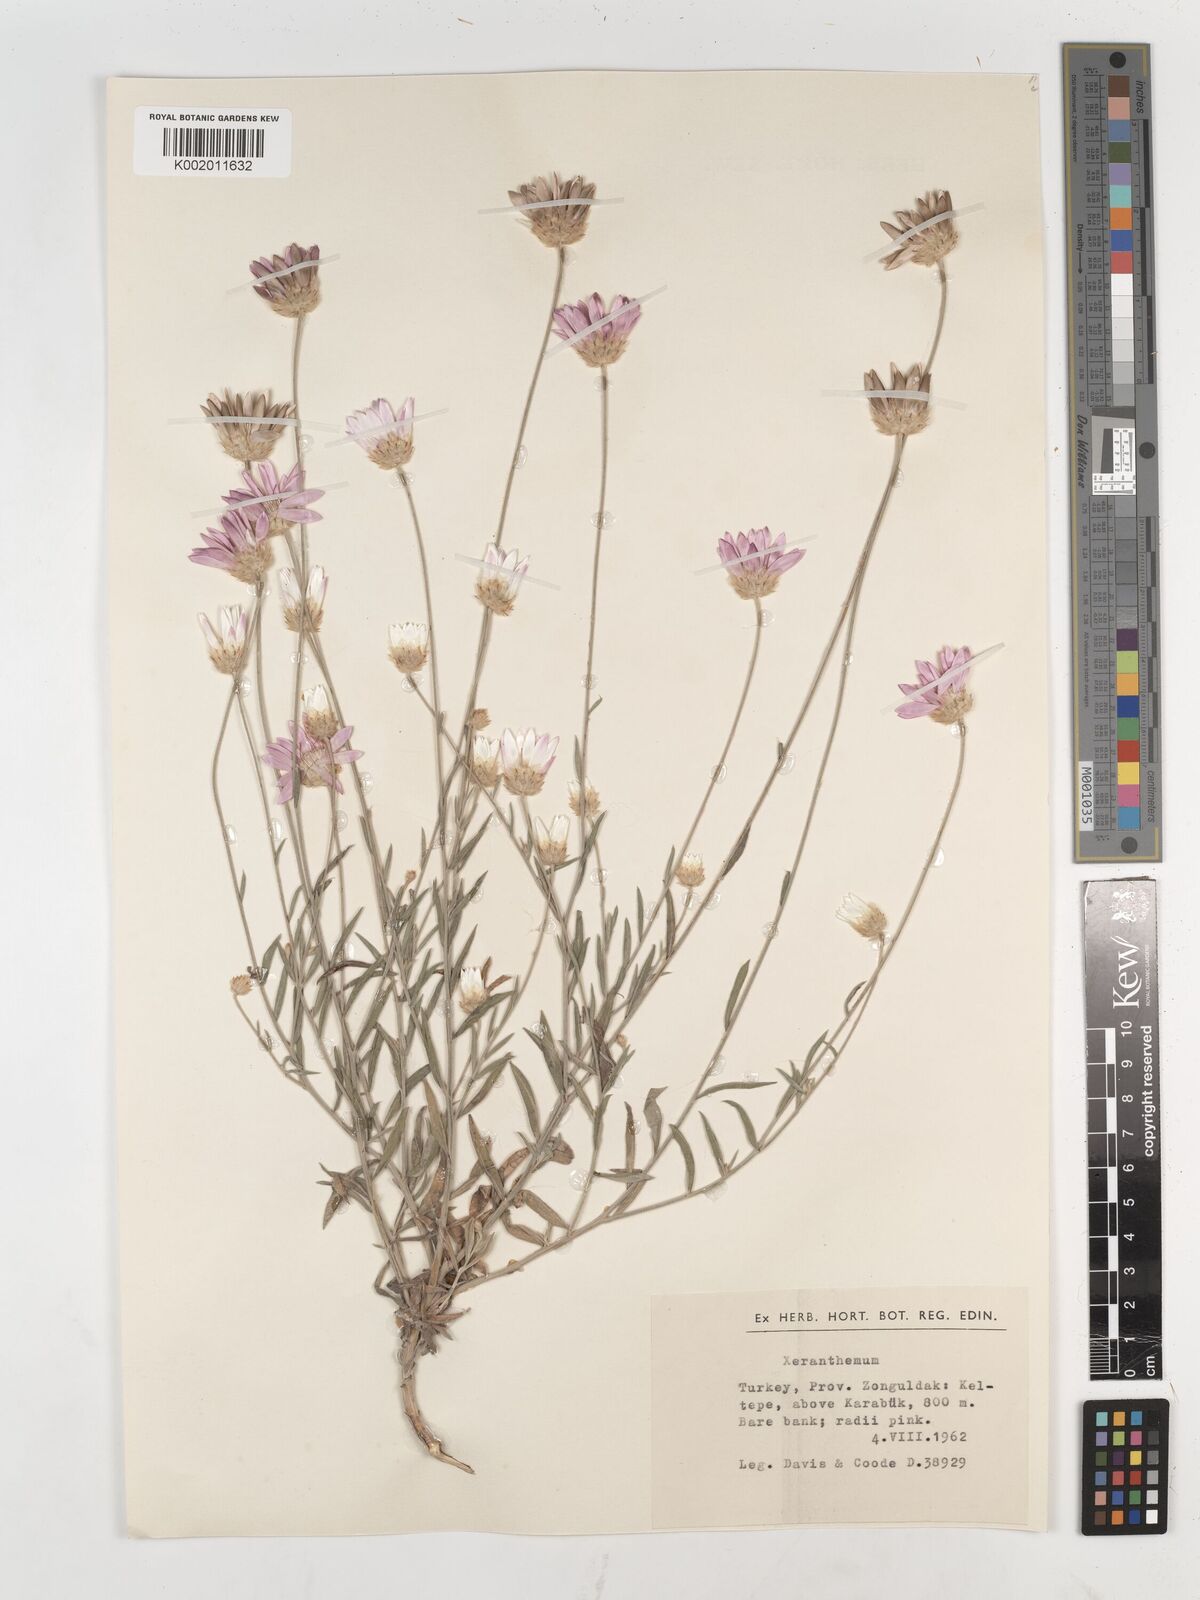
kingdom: Plantae
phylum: Tracheophyta
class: Magnoliopsida
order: Asterales
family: Asteraceae
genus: Xeranthemum
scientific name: Xeranthemum annuum
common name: Immortelle
